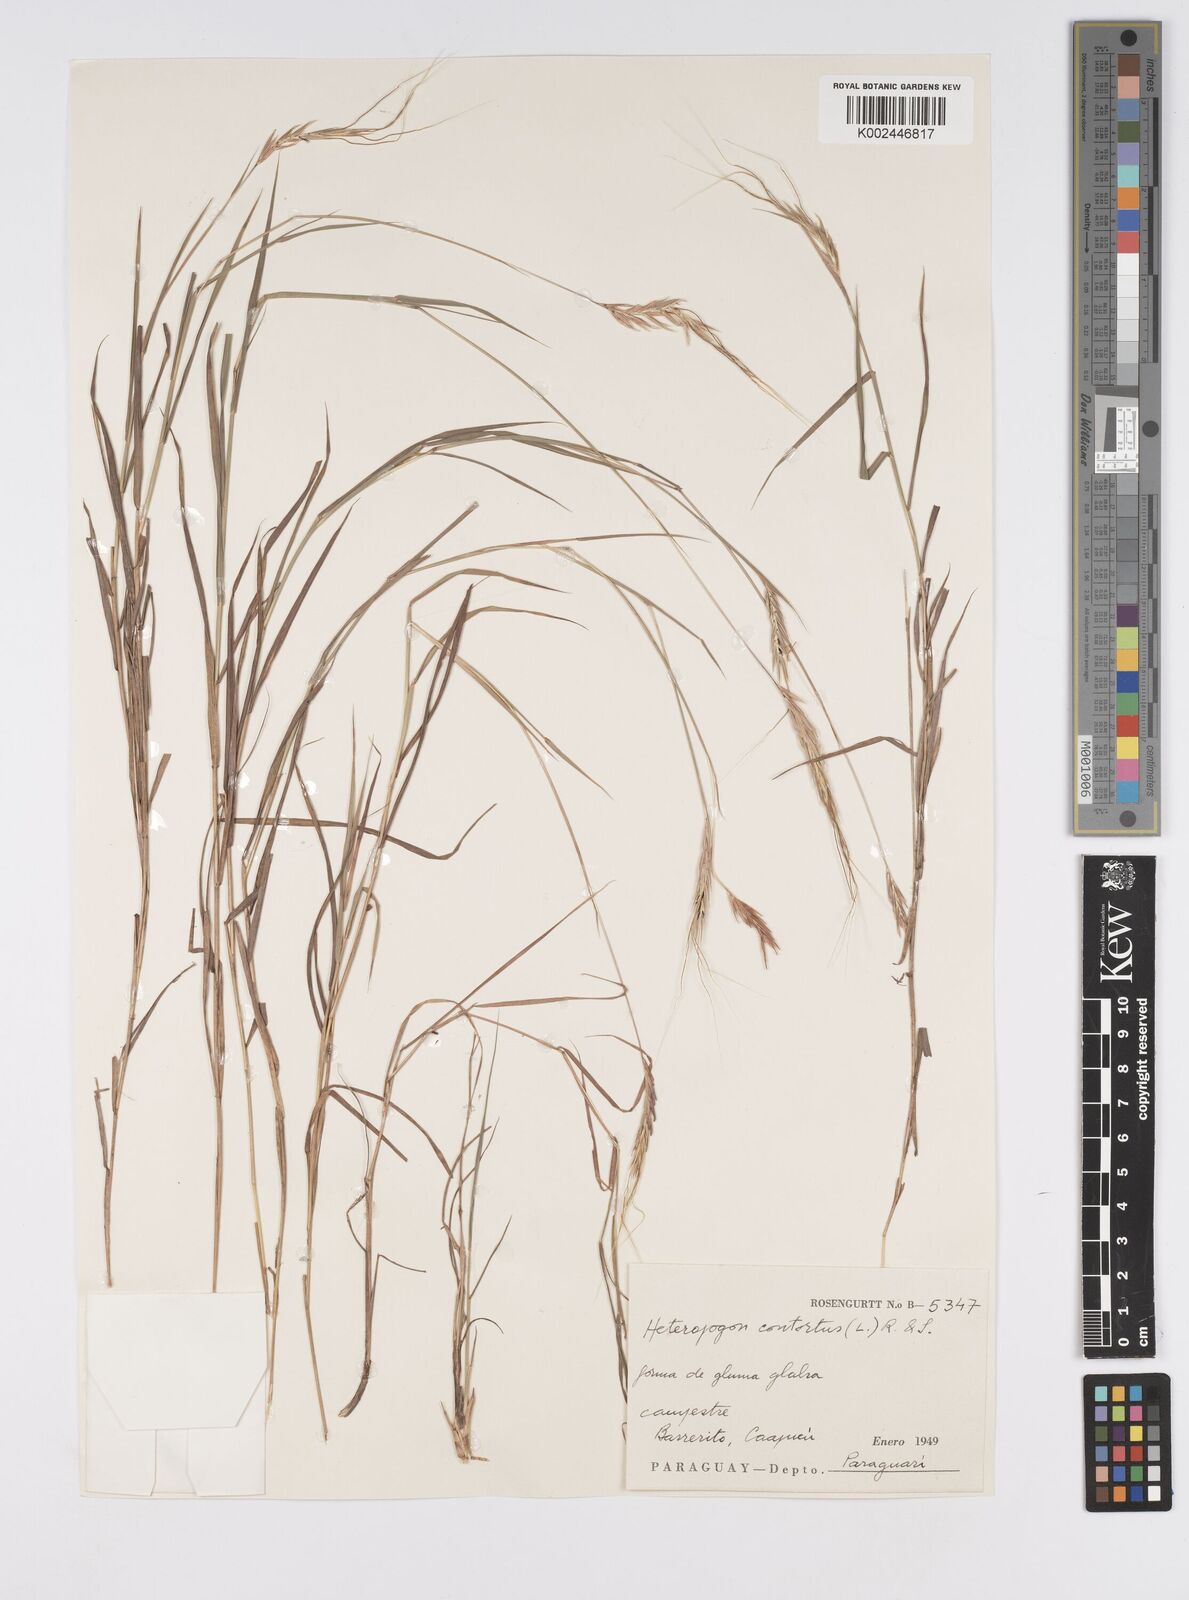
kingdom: Plantae
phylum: Tracheophyta
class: Liliopsida
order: Poales
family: Poaceae
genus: Agenium
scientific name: Agenium leptocladum
